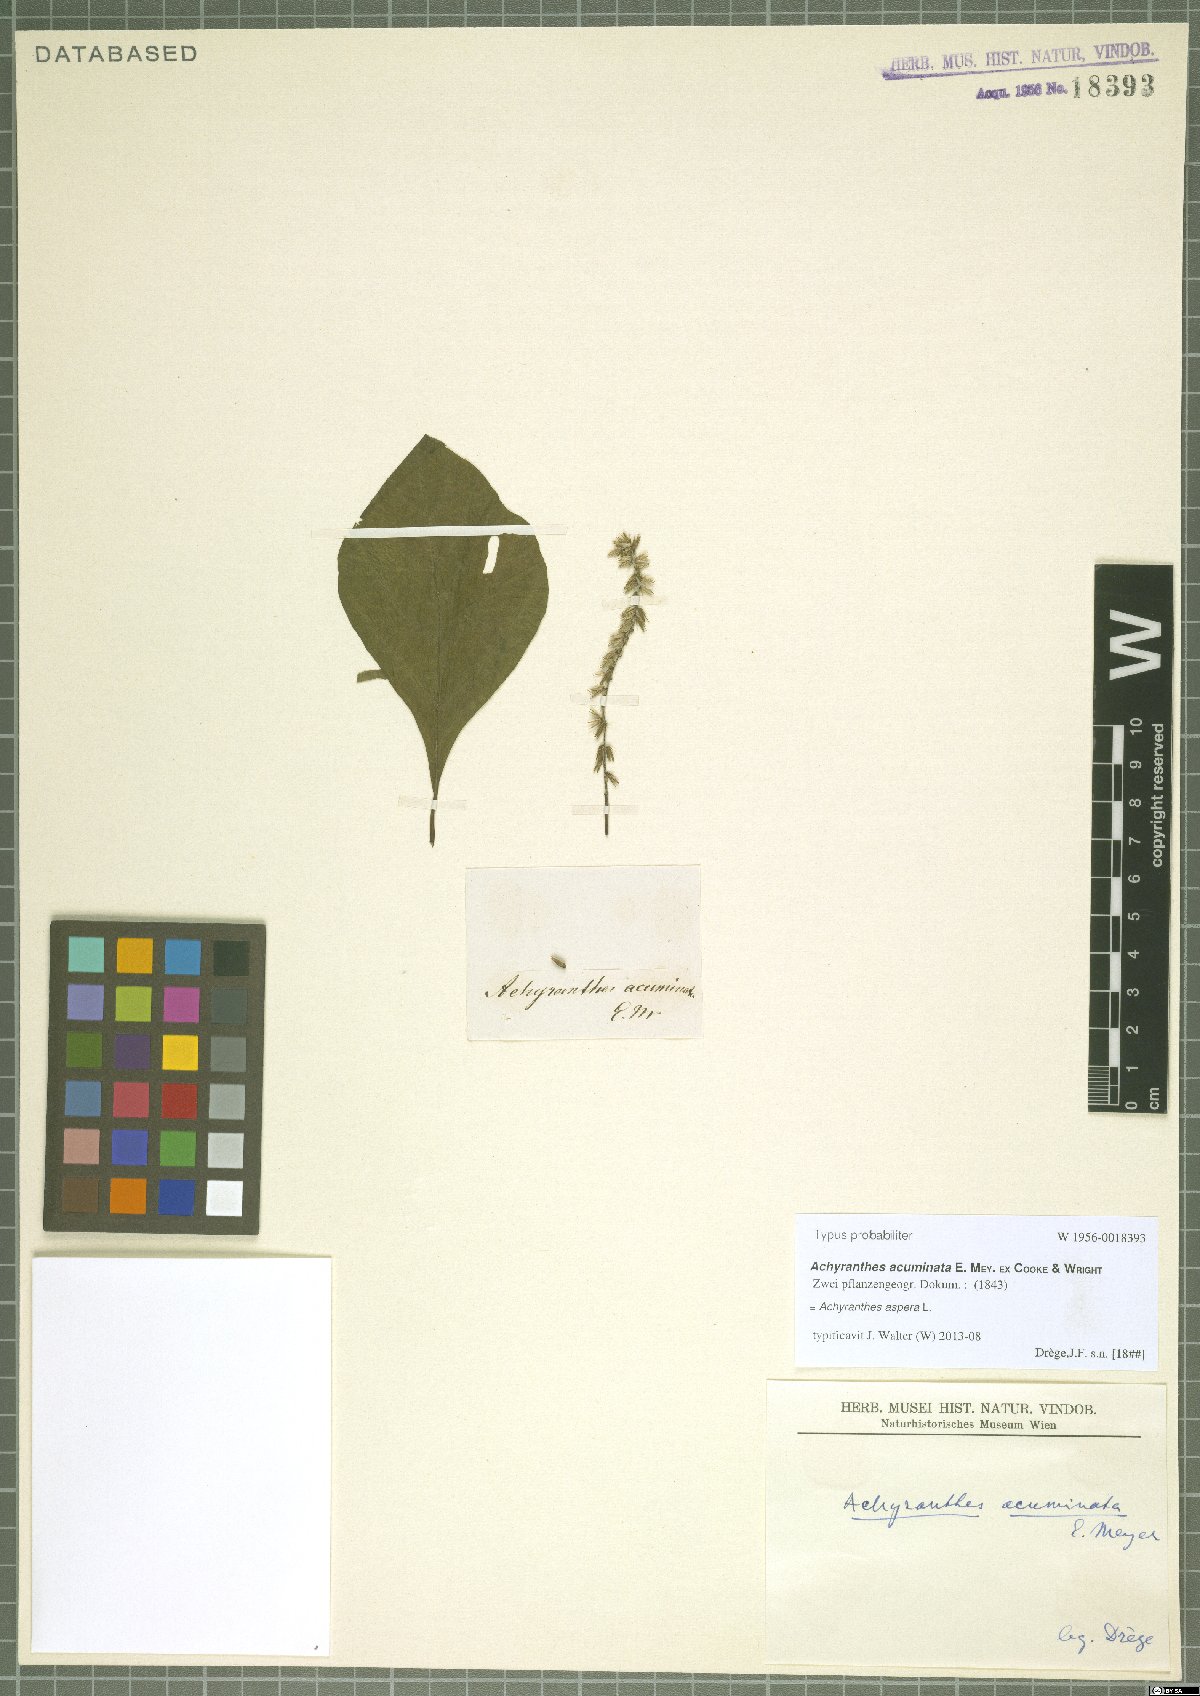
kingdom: Plantae
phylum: Tracheophyta
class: Magnoliopsida
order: Caryophyllales
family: Amaranthaceae
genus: Achyranthes
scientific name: Achyranthes aspera
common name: Devil's horsewhip
